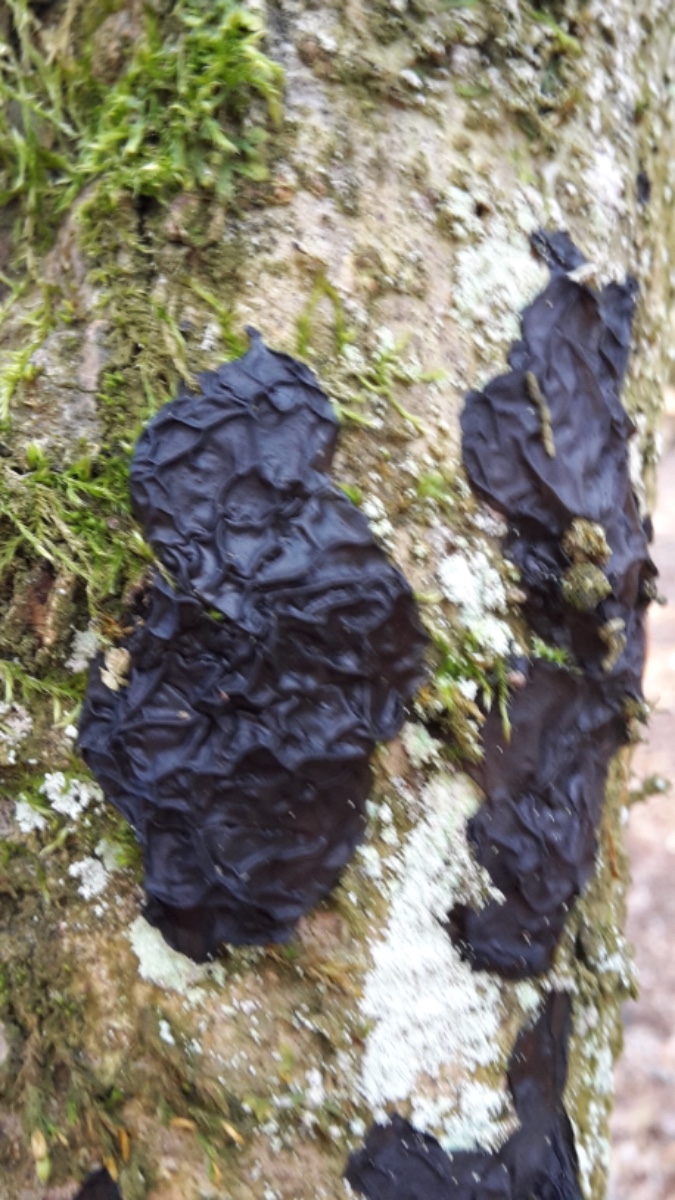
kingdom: Fungi
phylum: Basidiomycota
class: Agaricomycetes
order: Auriculariales
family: Auriculariaceae
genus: Exidia
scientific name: Exidia nigricans
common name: almindelig bævretop
